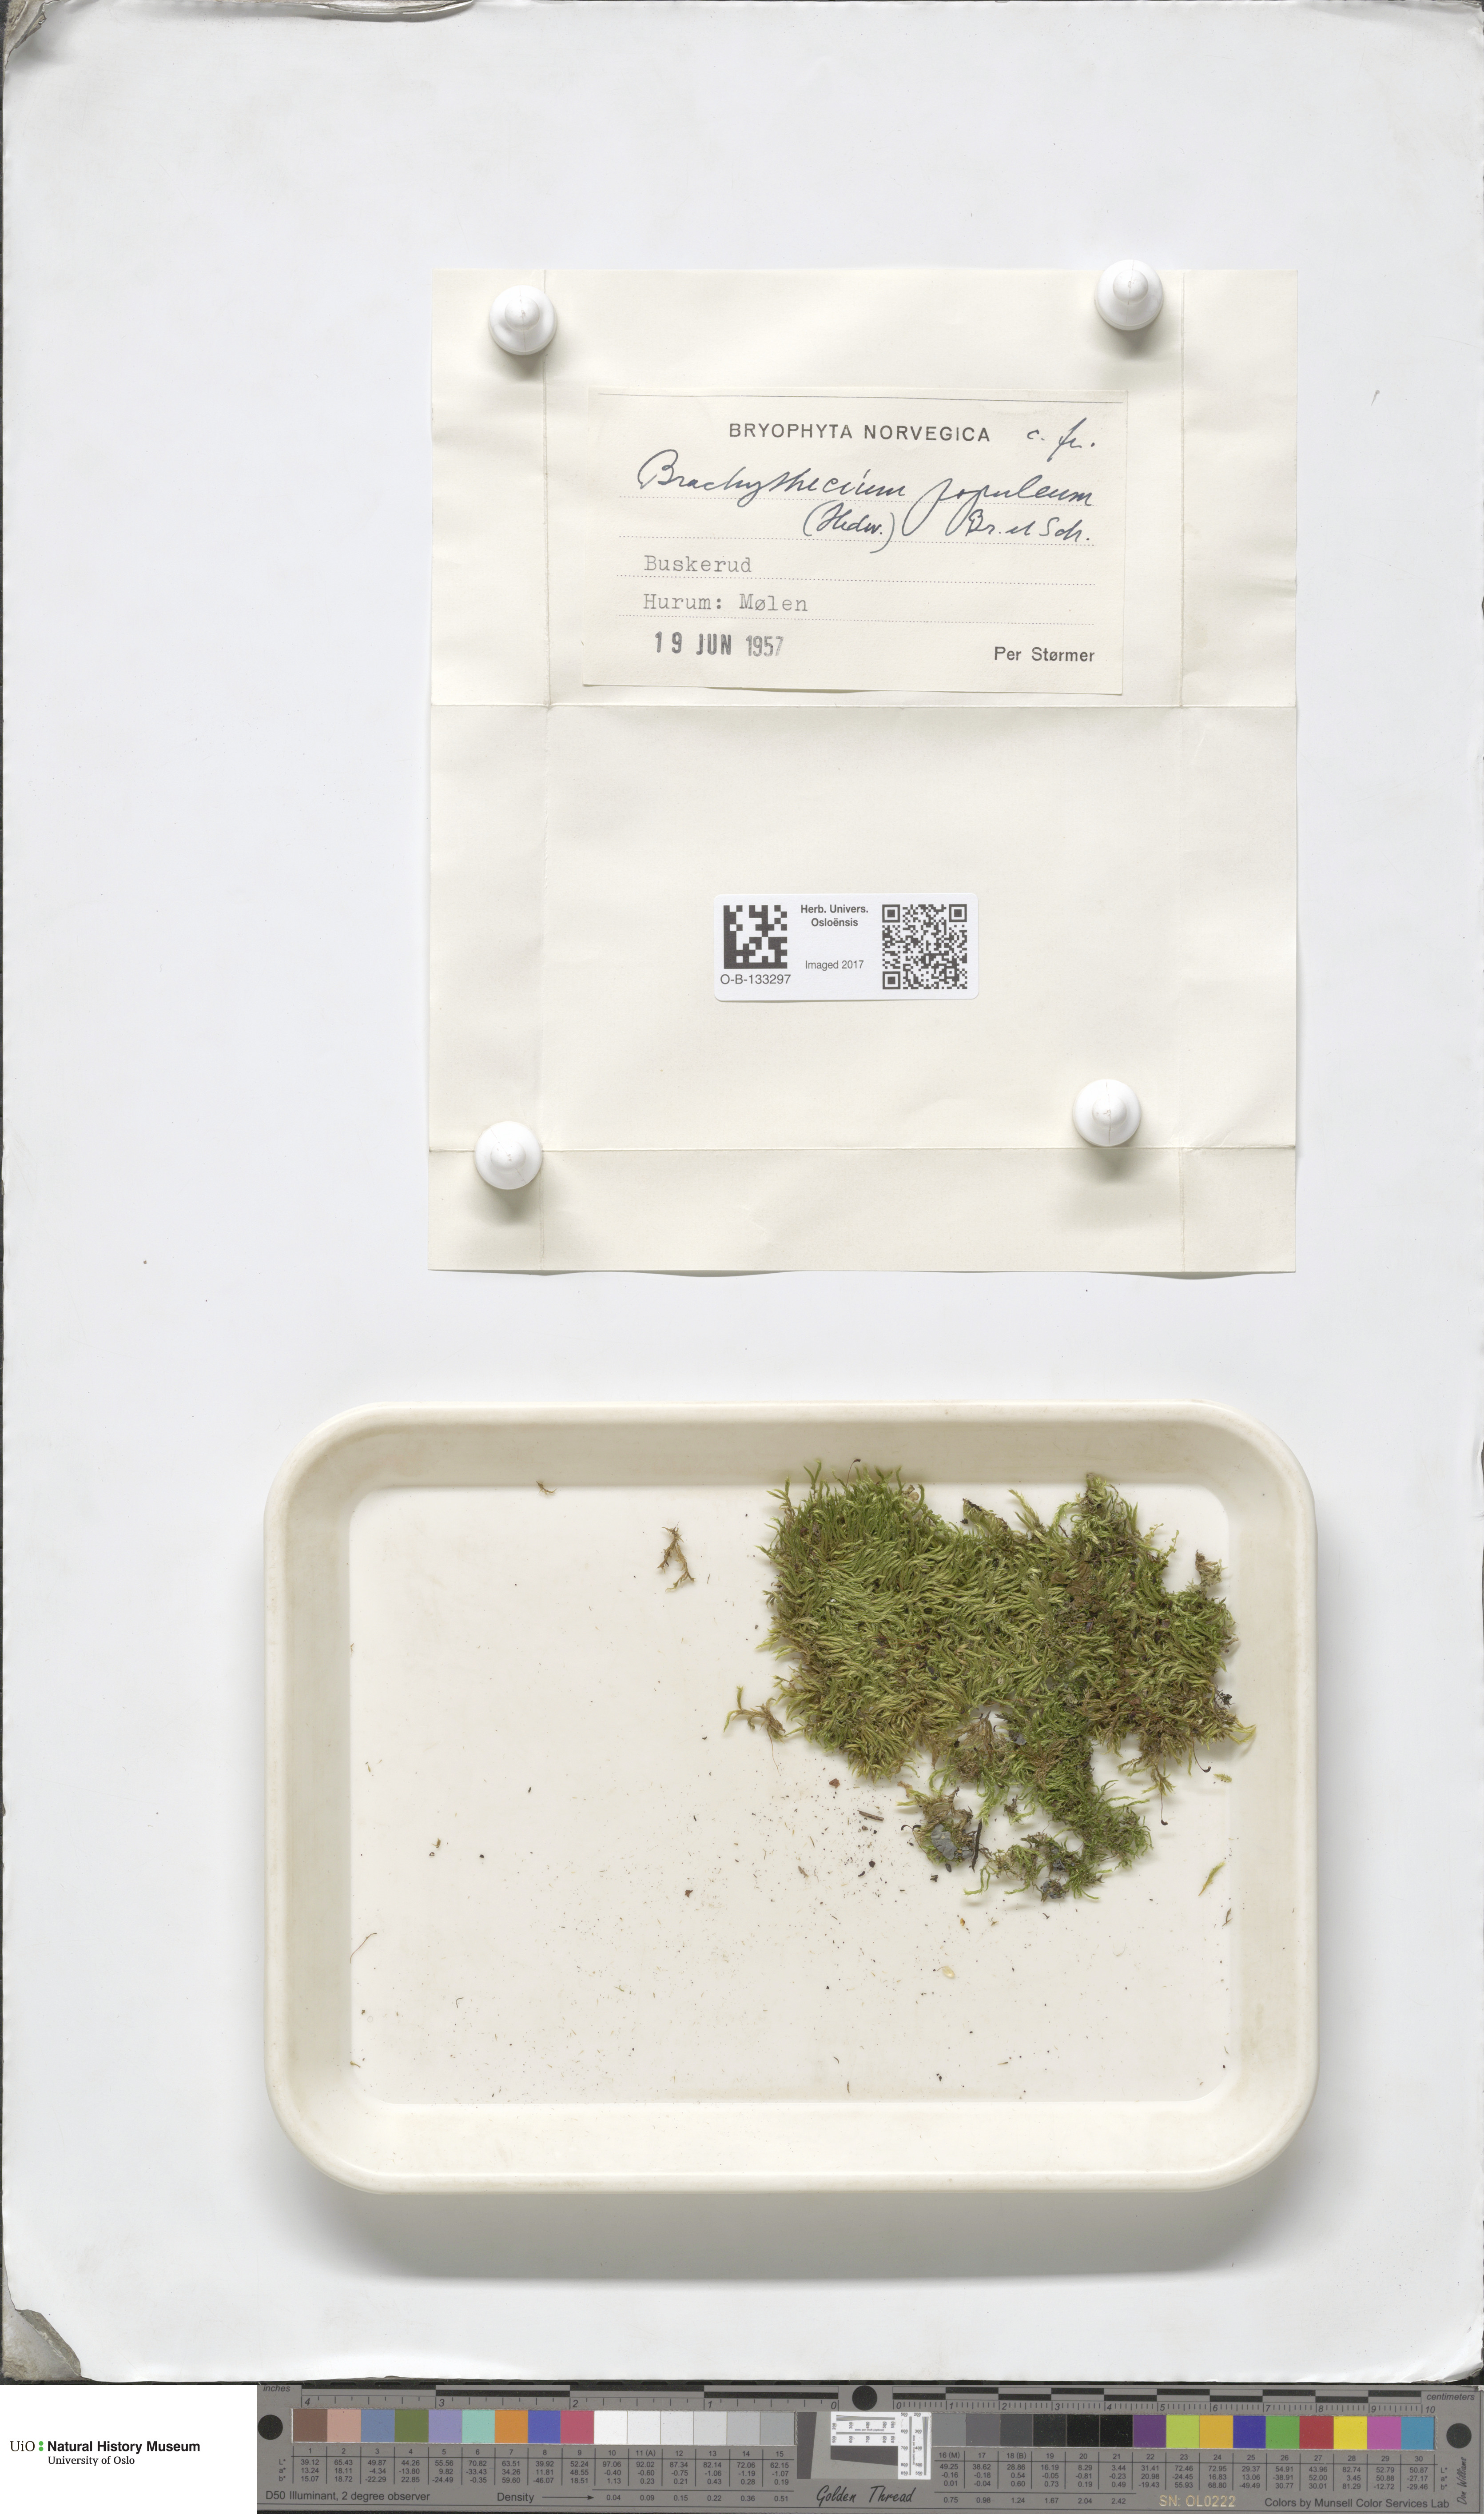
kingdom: Plantae
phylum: Bryophyta
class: Bryopsida
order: Hypnales
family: Brachytheciaceae
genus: Sciuro-hypnum
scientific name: Sciuro-hypnum plumosum
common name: Rusty feather-moss
